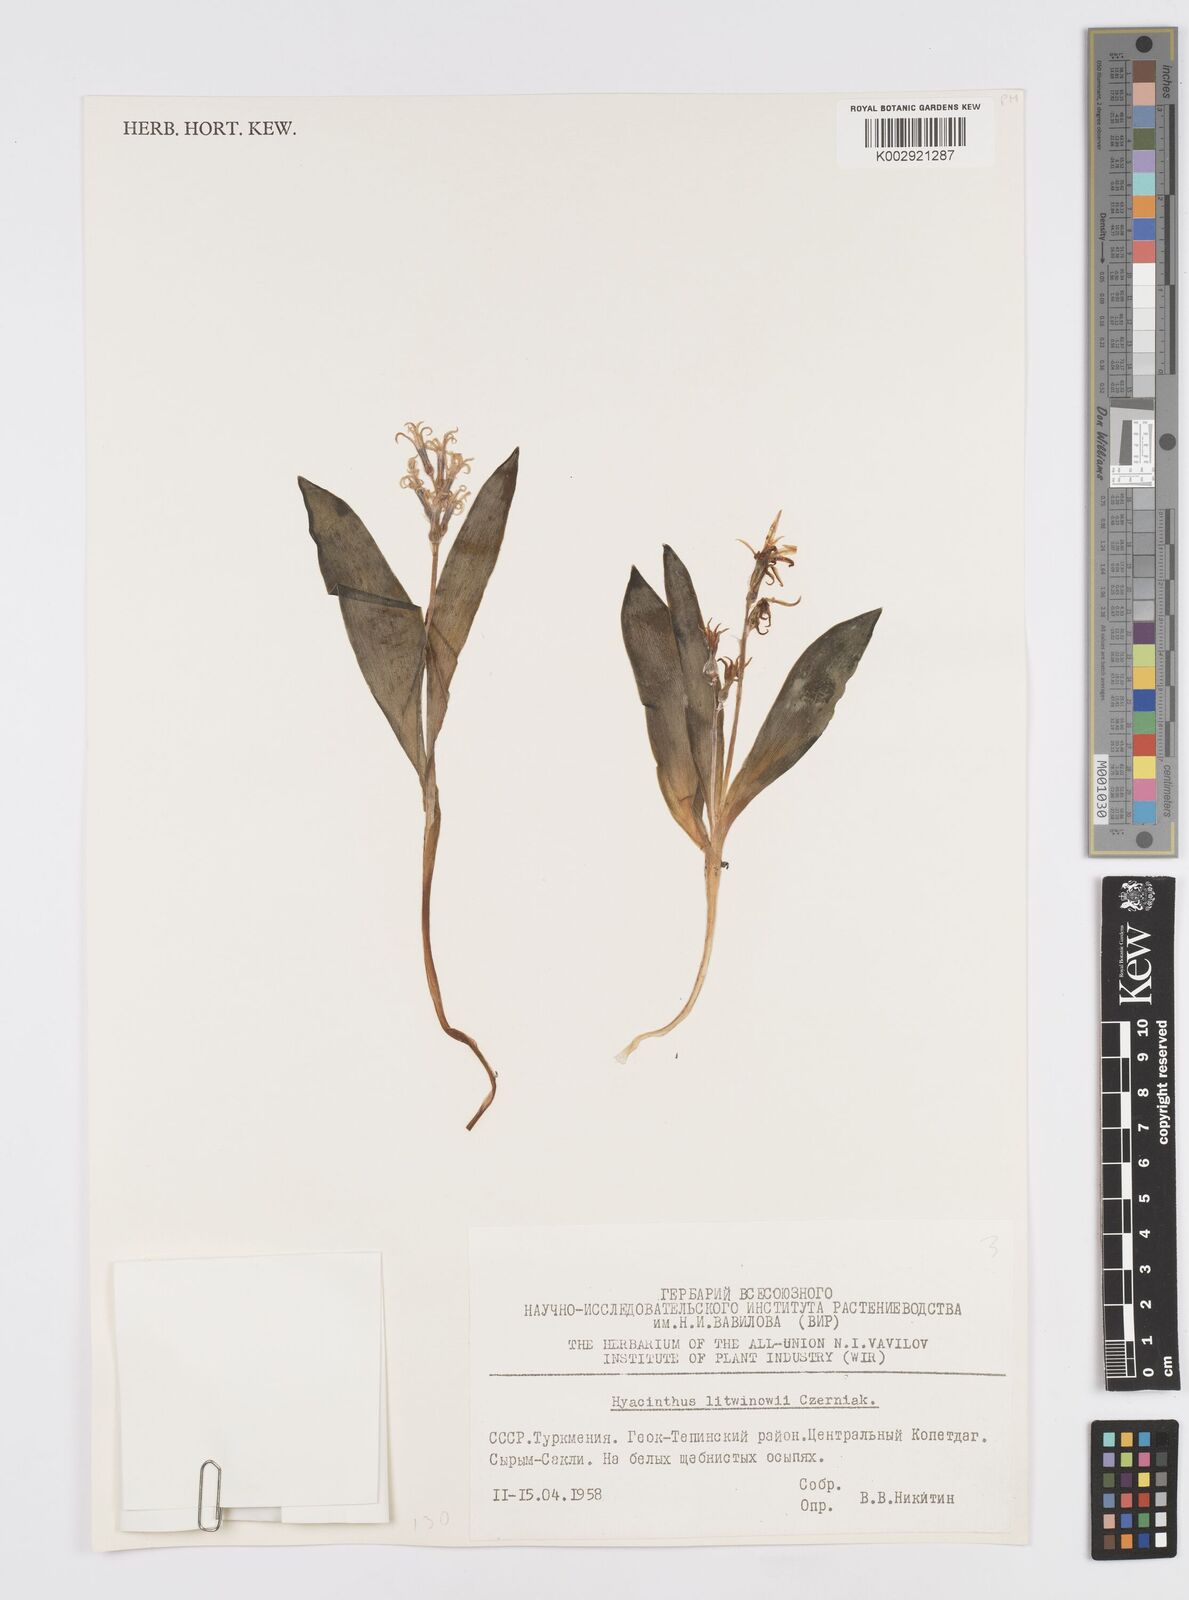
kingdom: Plantae
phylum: Tracheophyta
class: Liliopsida
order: Asparagales
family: Asparagaceae
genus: Hyacinthus
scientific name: Hyacinthus litwinowii
